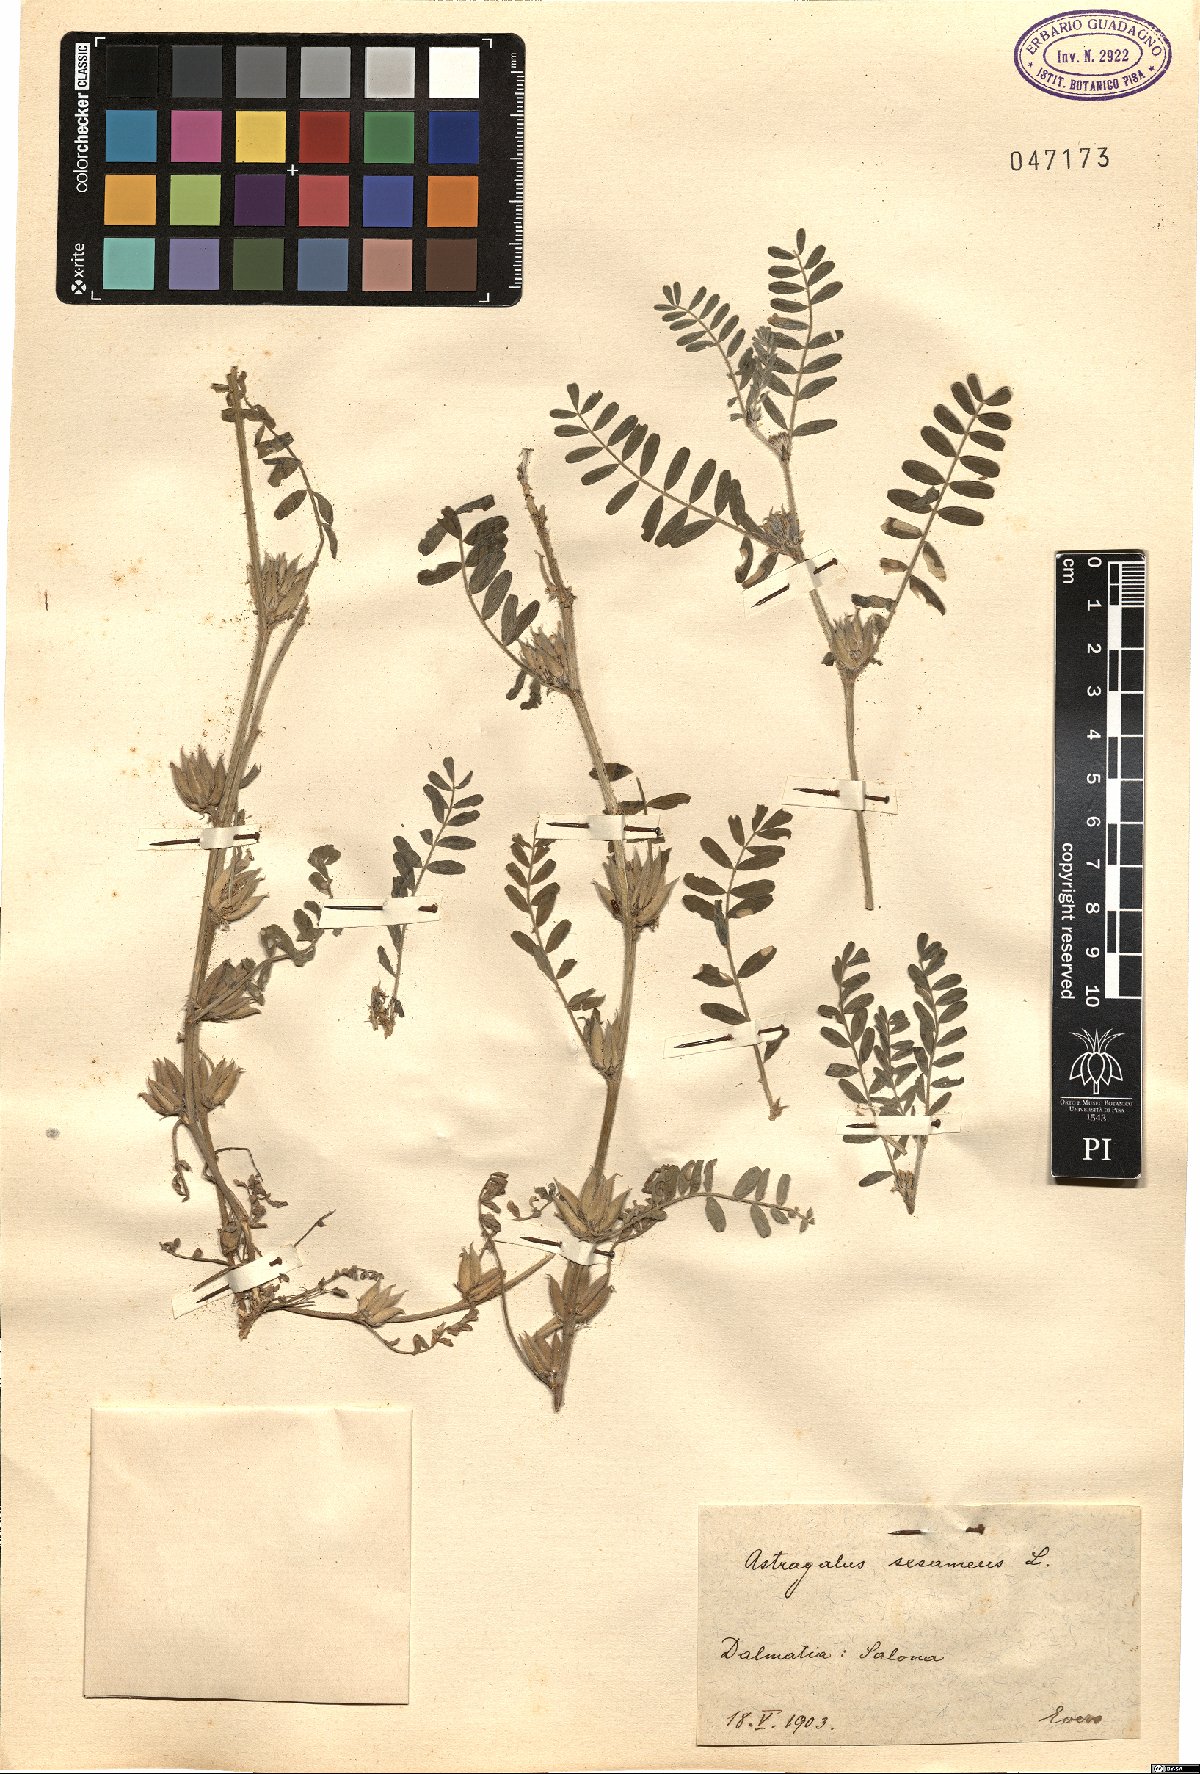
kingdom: Plantae
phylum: Tracheophyta
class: Magnoliopsida
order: Fabales
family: Fabaceae
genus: Astragalus
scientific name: Astragalus sesameus
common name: Purple milk-vetch
